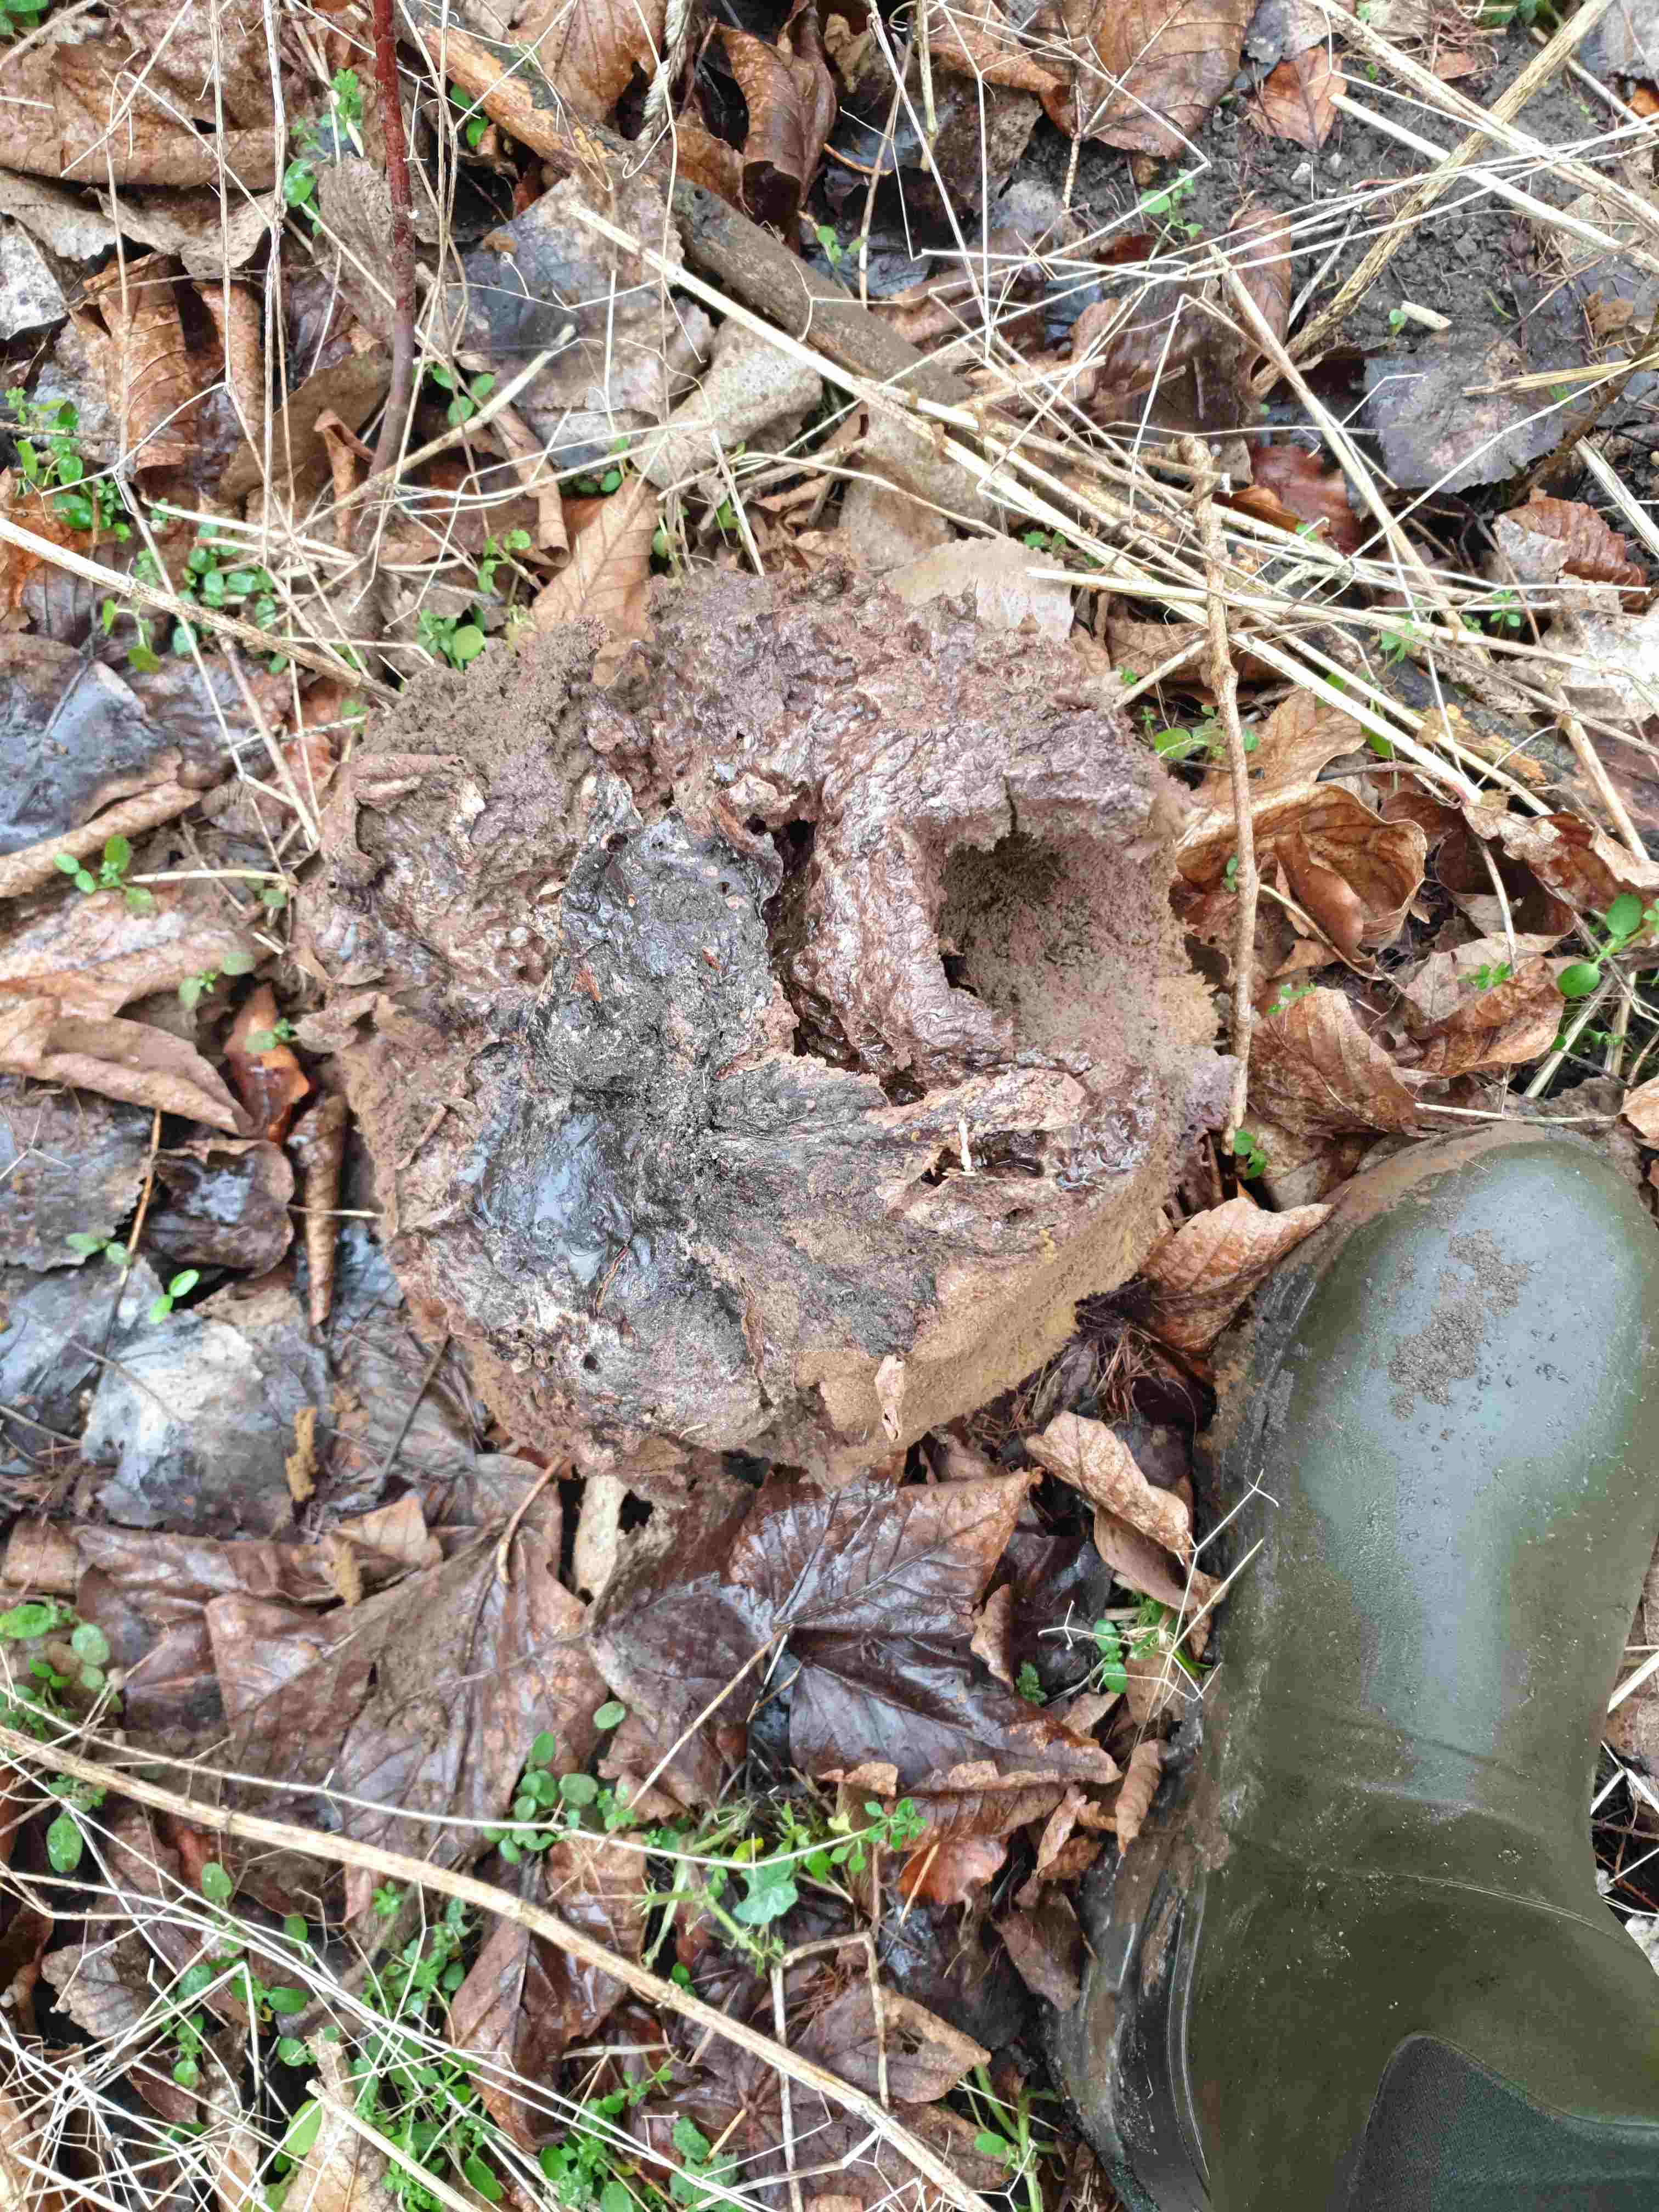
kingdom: Fungi
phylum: Basidiomycota
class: Agaricomycetes
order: Agaricales
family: Lycoperdaceae
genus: Calvatia
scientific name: Calvatia gigantea
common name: kæmpestøvbold
